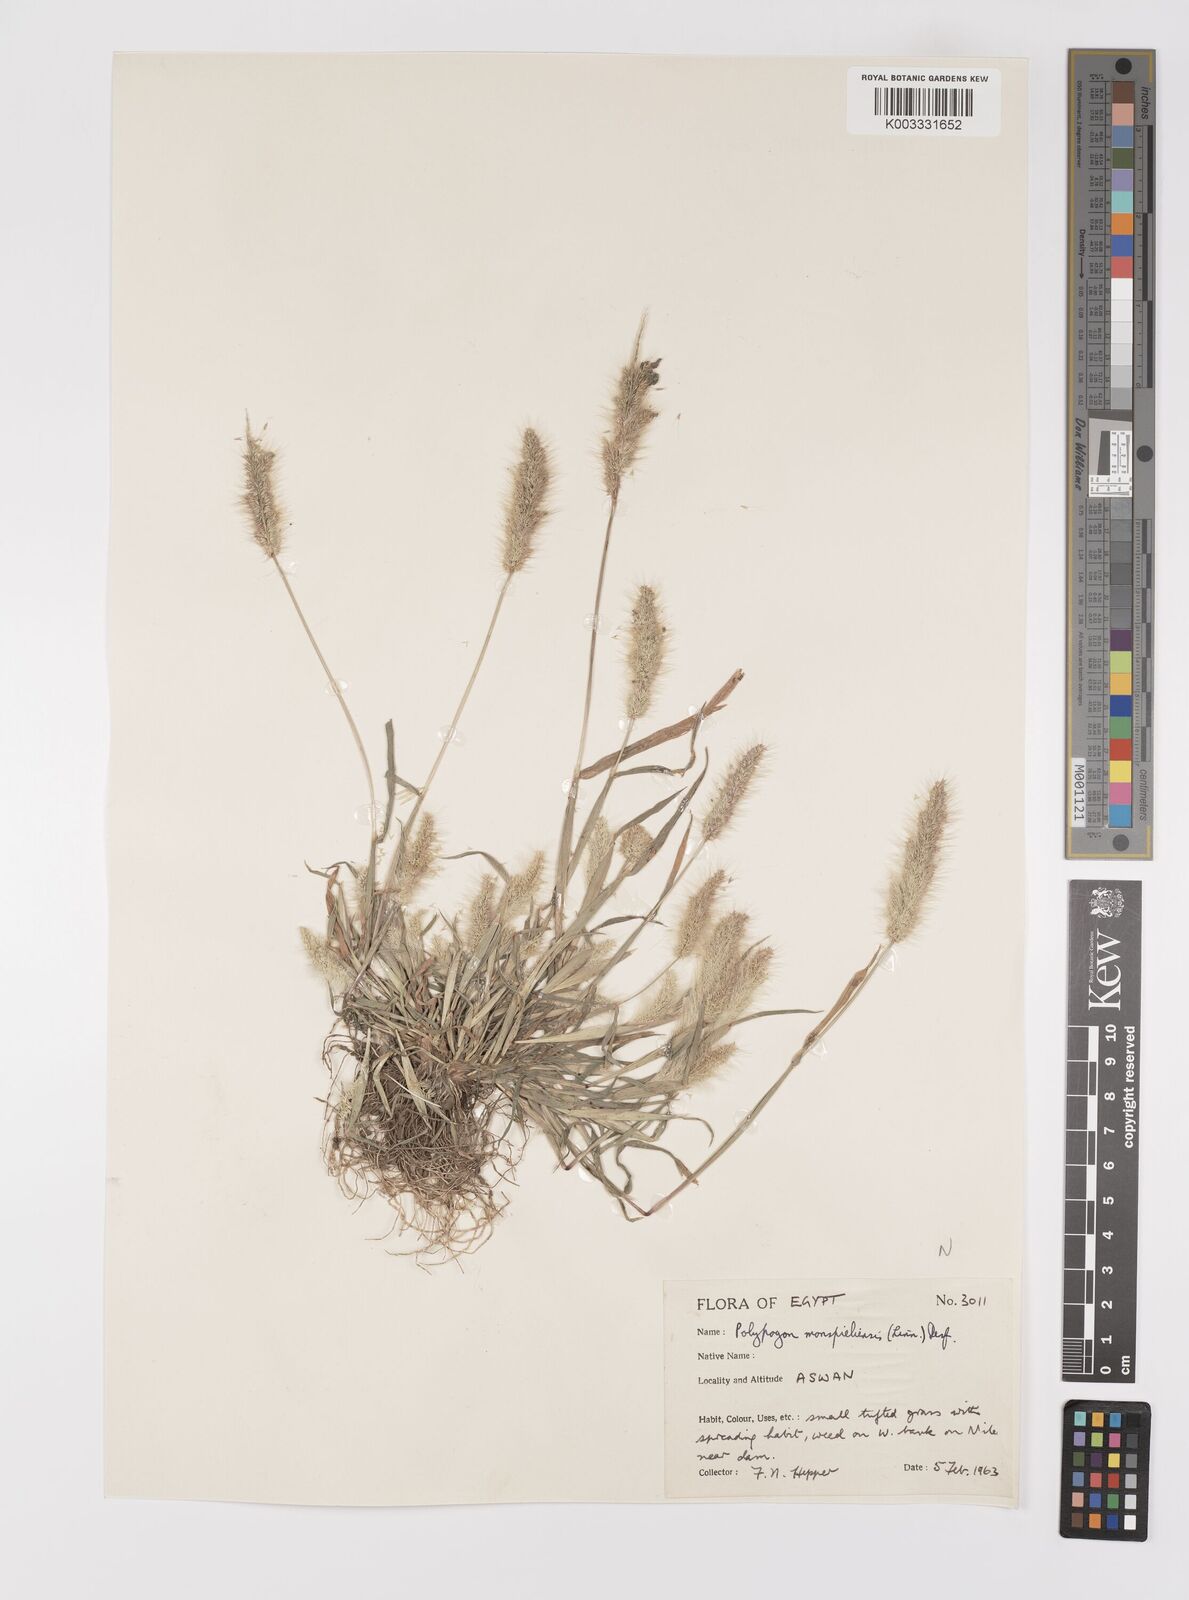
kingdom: Plantae
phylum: Tracheophyta
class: Liliopsida
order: Poales
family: Poaceae
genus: Polypogon
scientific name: Polypogon monspeliensis
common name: Annual rabbitsfoot grass
